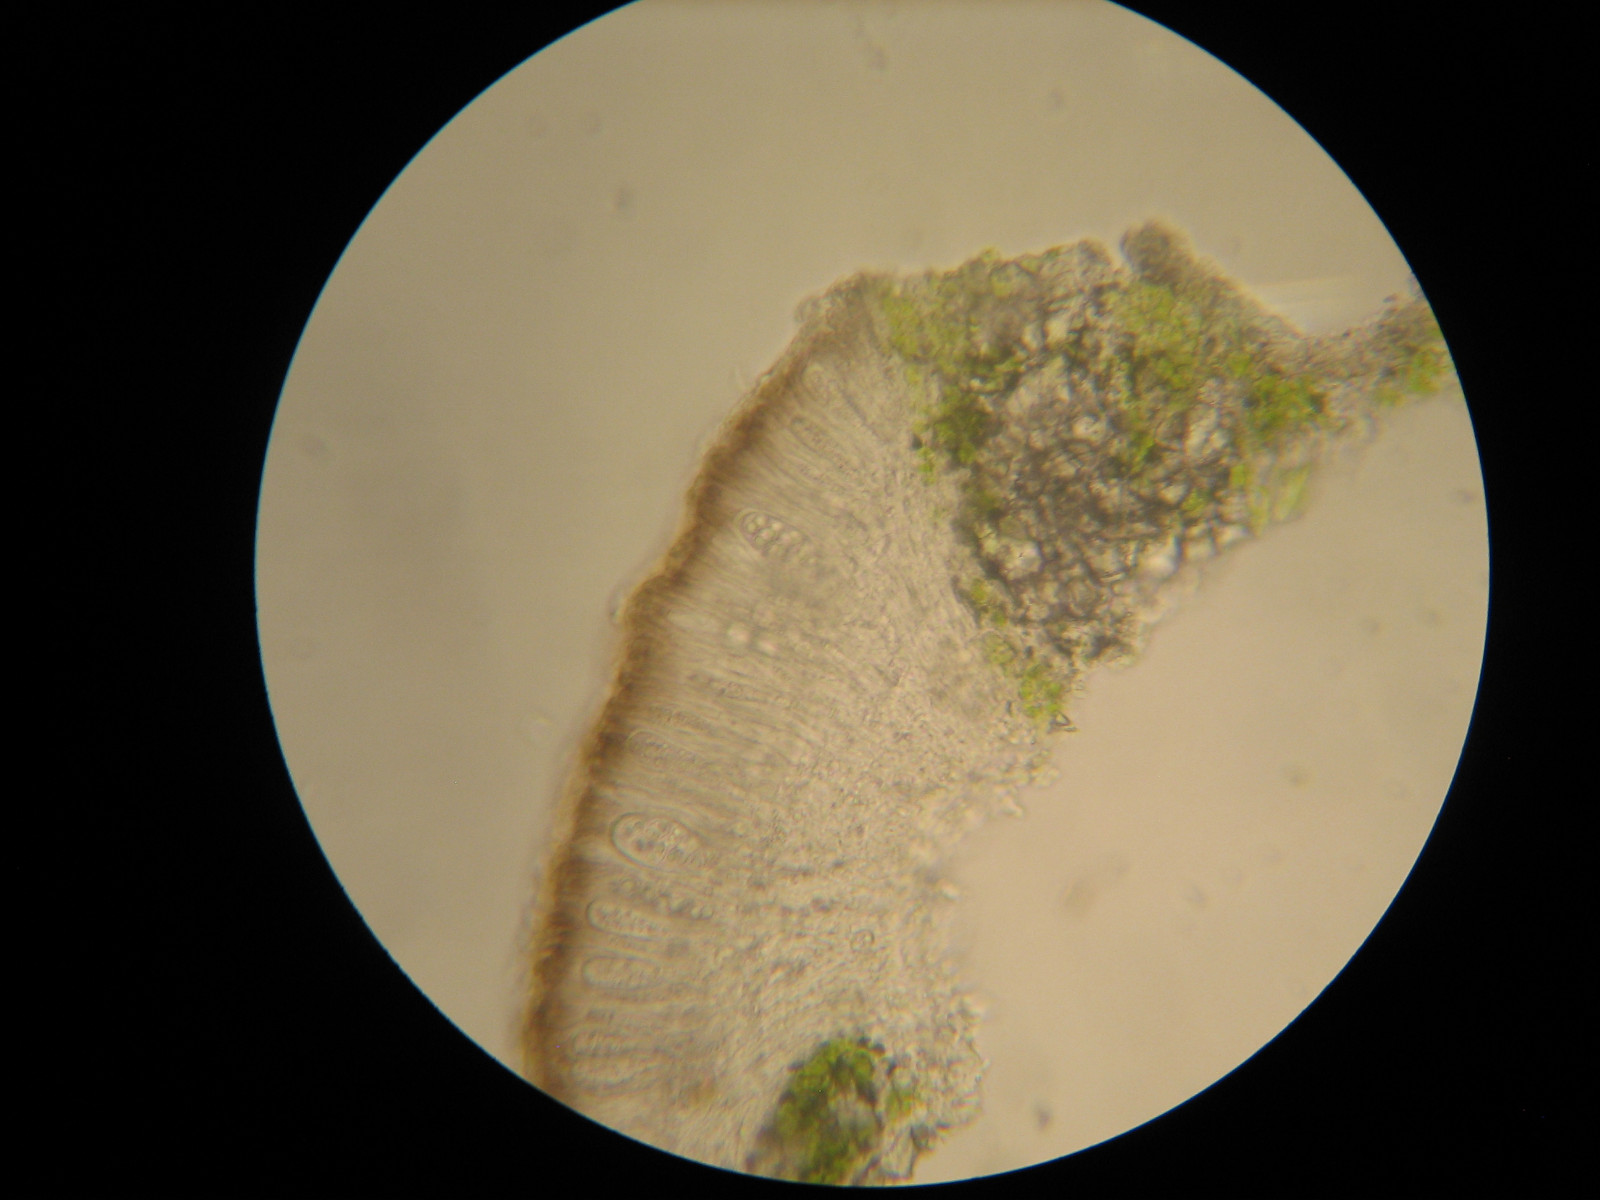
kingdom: Fungi
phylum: Ascomycota
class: Lecanoromycetes
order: Lecanorales
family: Lecanoraceae
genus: Lecanora
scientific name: Lecanora argentata
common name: sølv-kantskivelav
